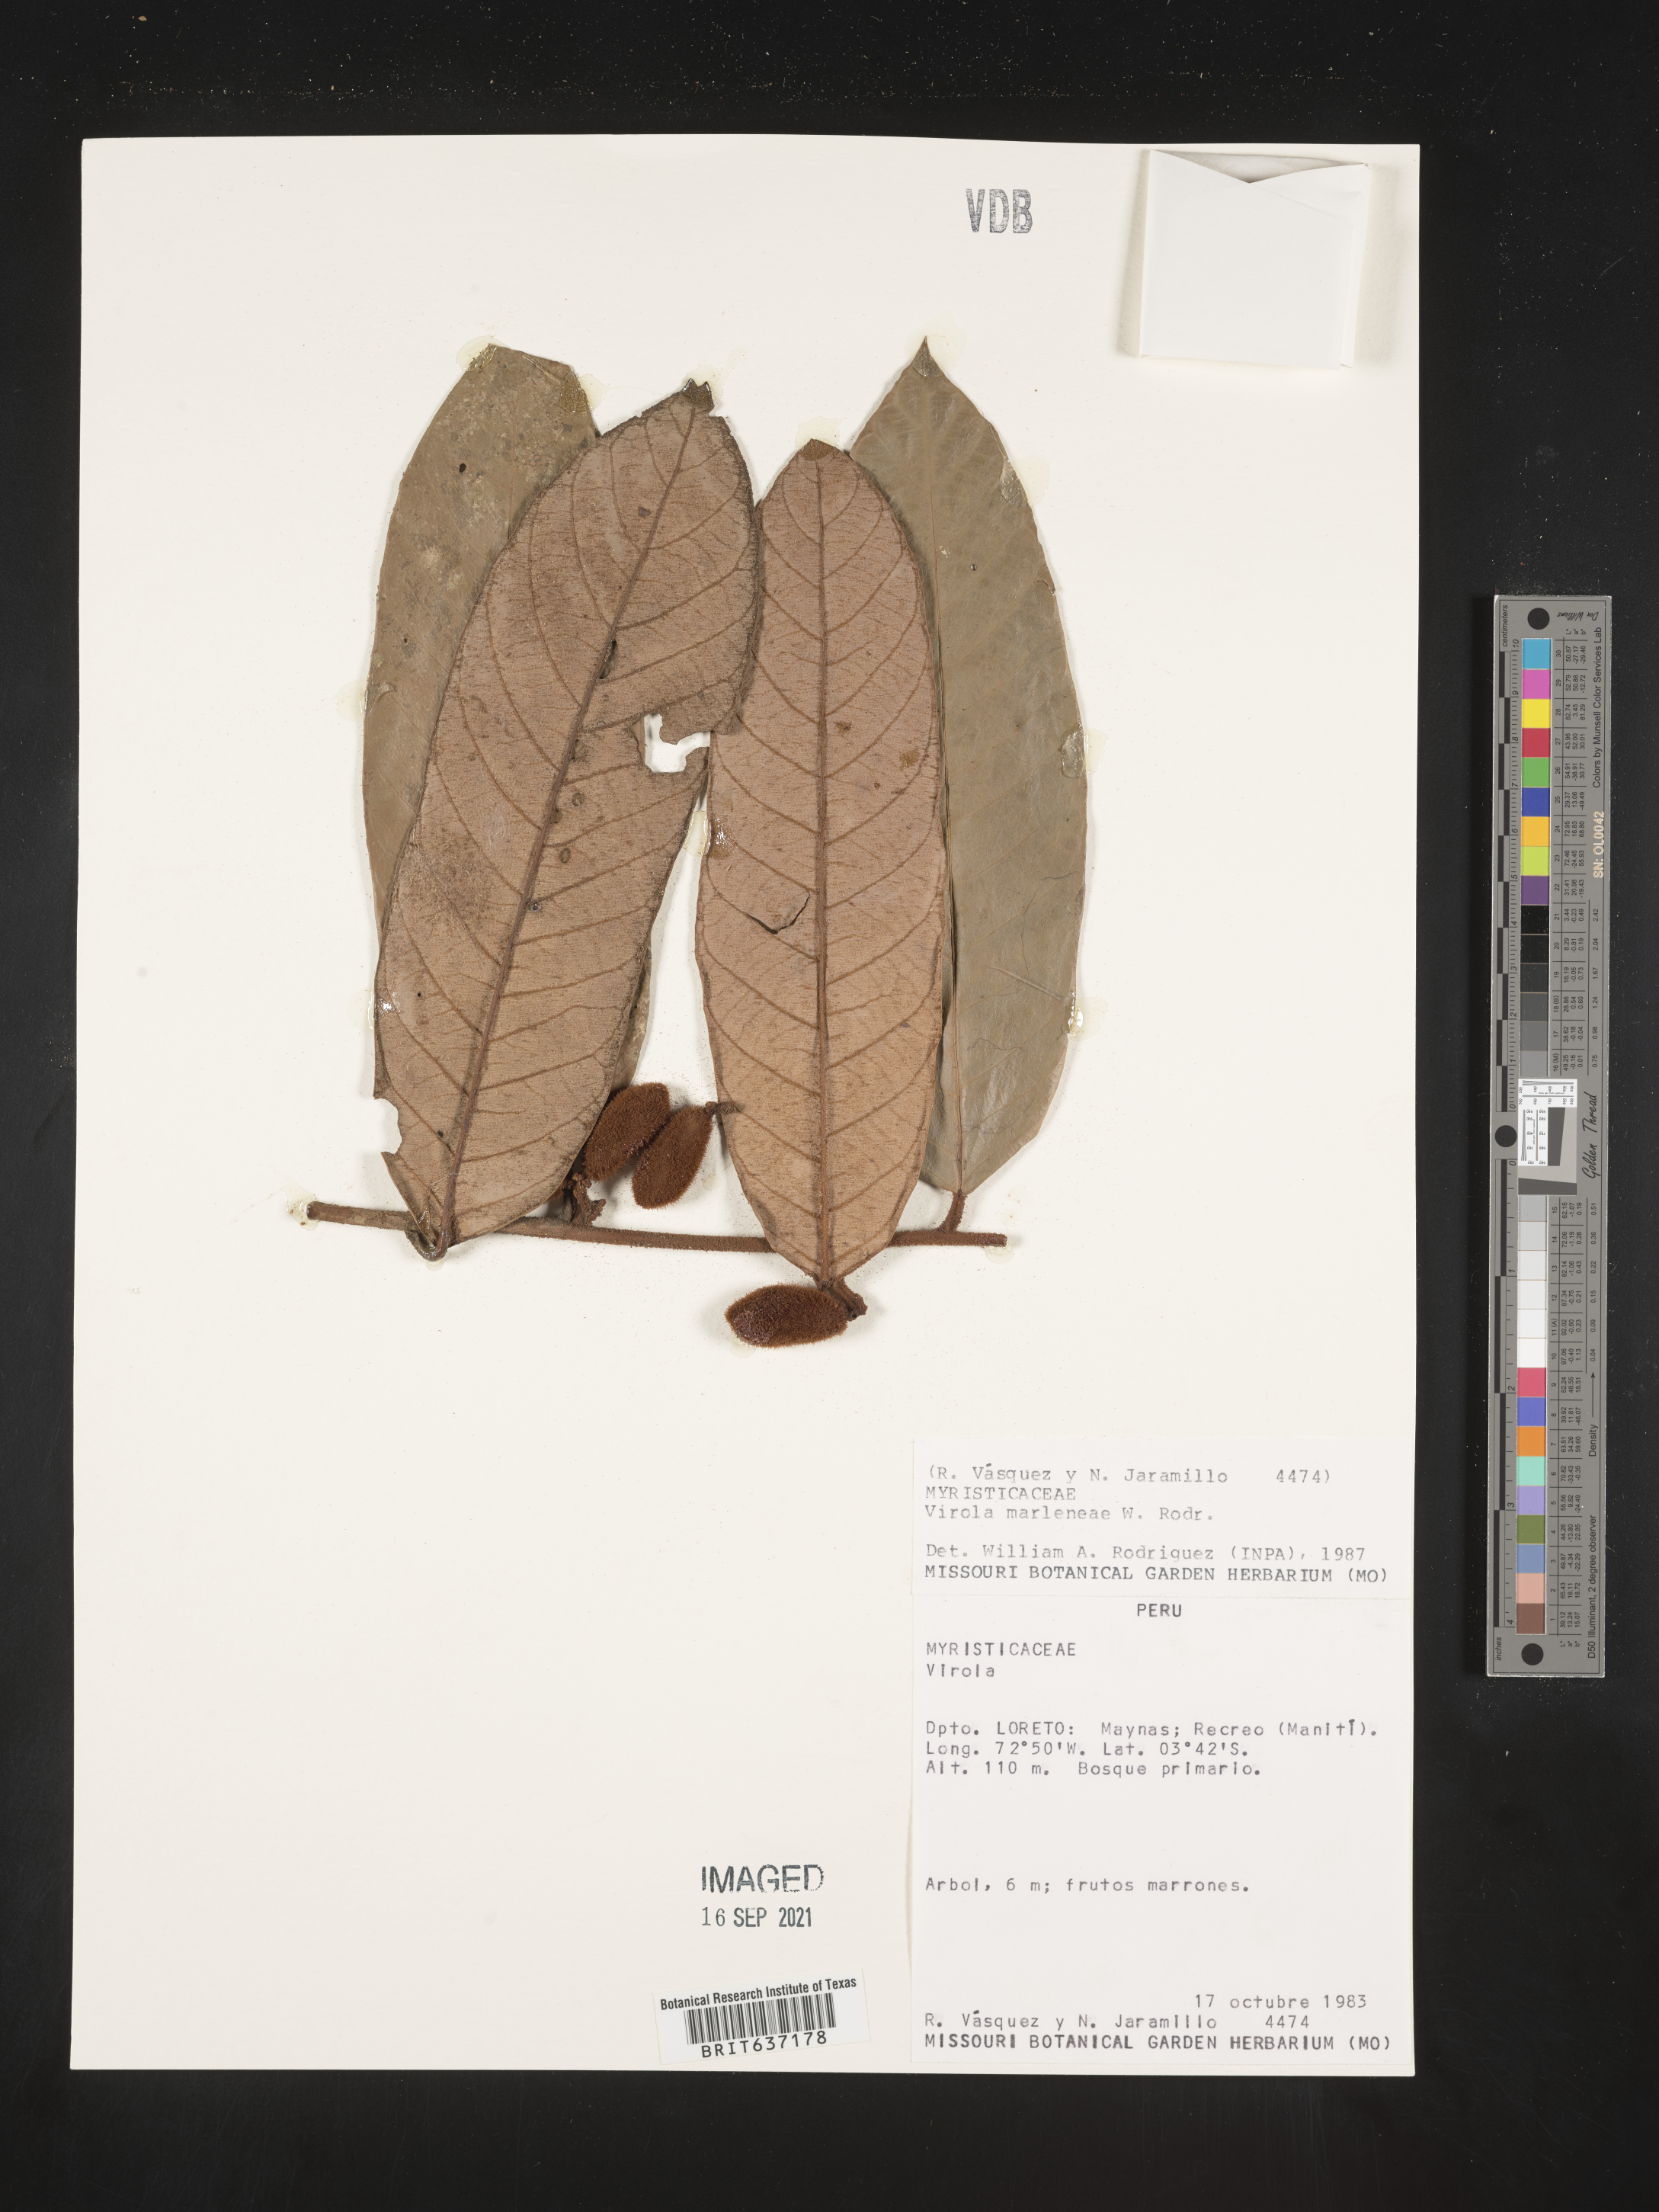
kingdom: Plantae
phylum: Tracheophyta
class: Magnoliopsida
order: Magnoliales
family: Myristicaceae
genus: Virola
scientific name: Virola
